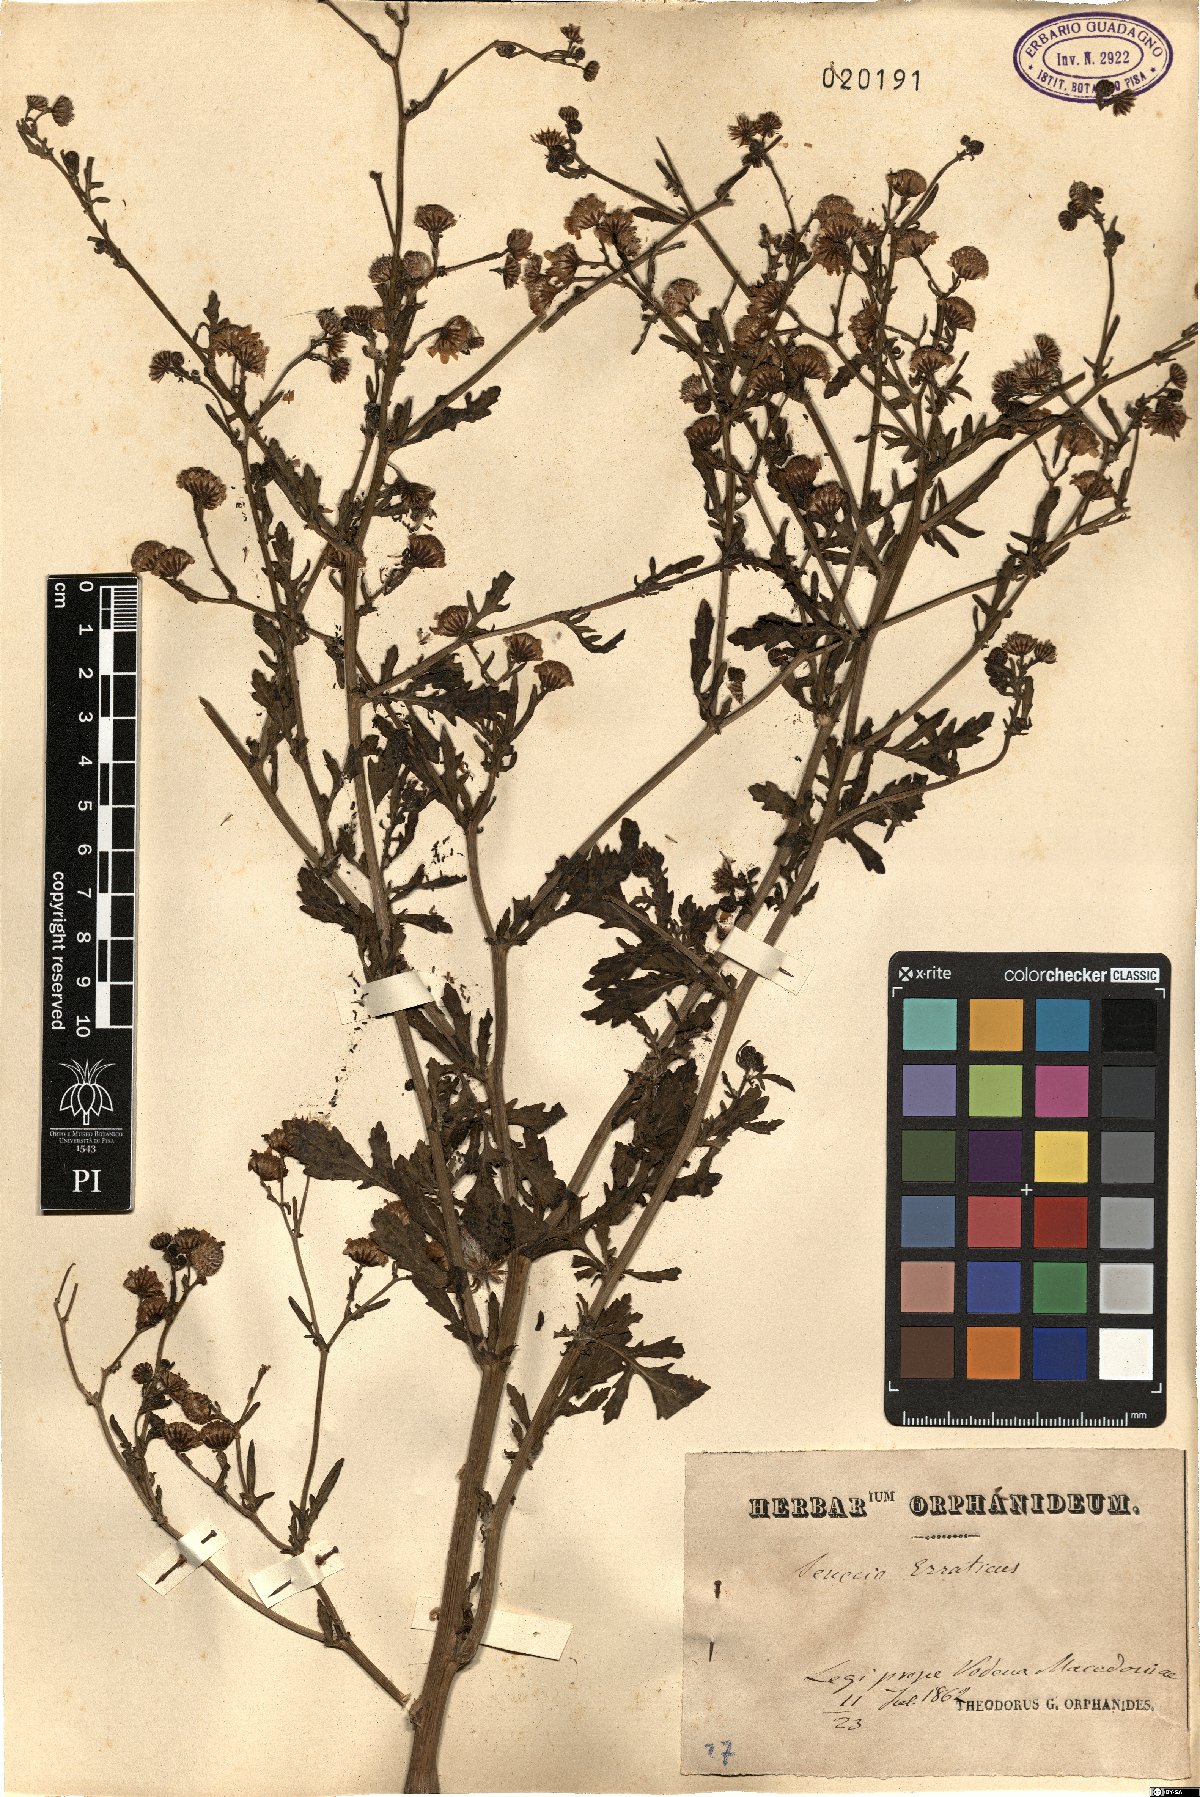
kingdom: Plantae
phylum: Tracheophyta
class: Magnoliopsida
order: Asterales
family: Asteraceae
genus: Jacobaea
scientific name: Jacobaea erratica
